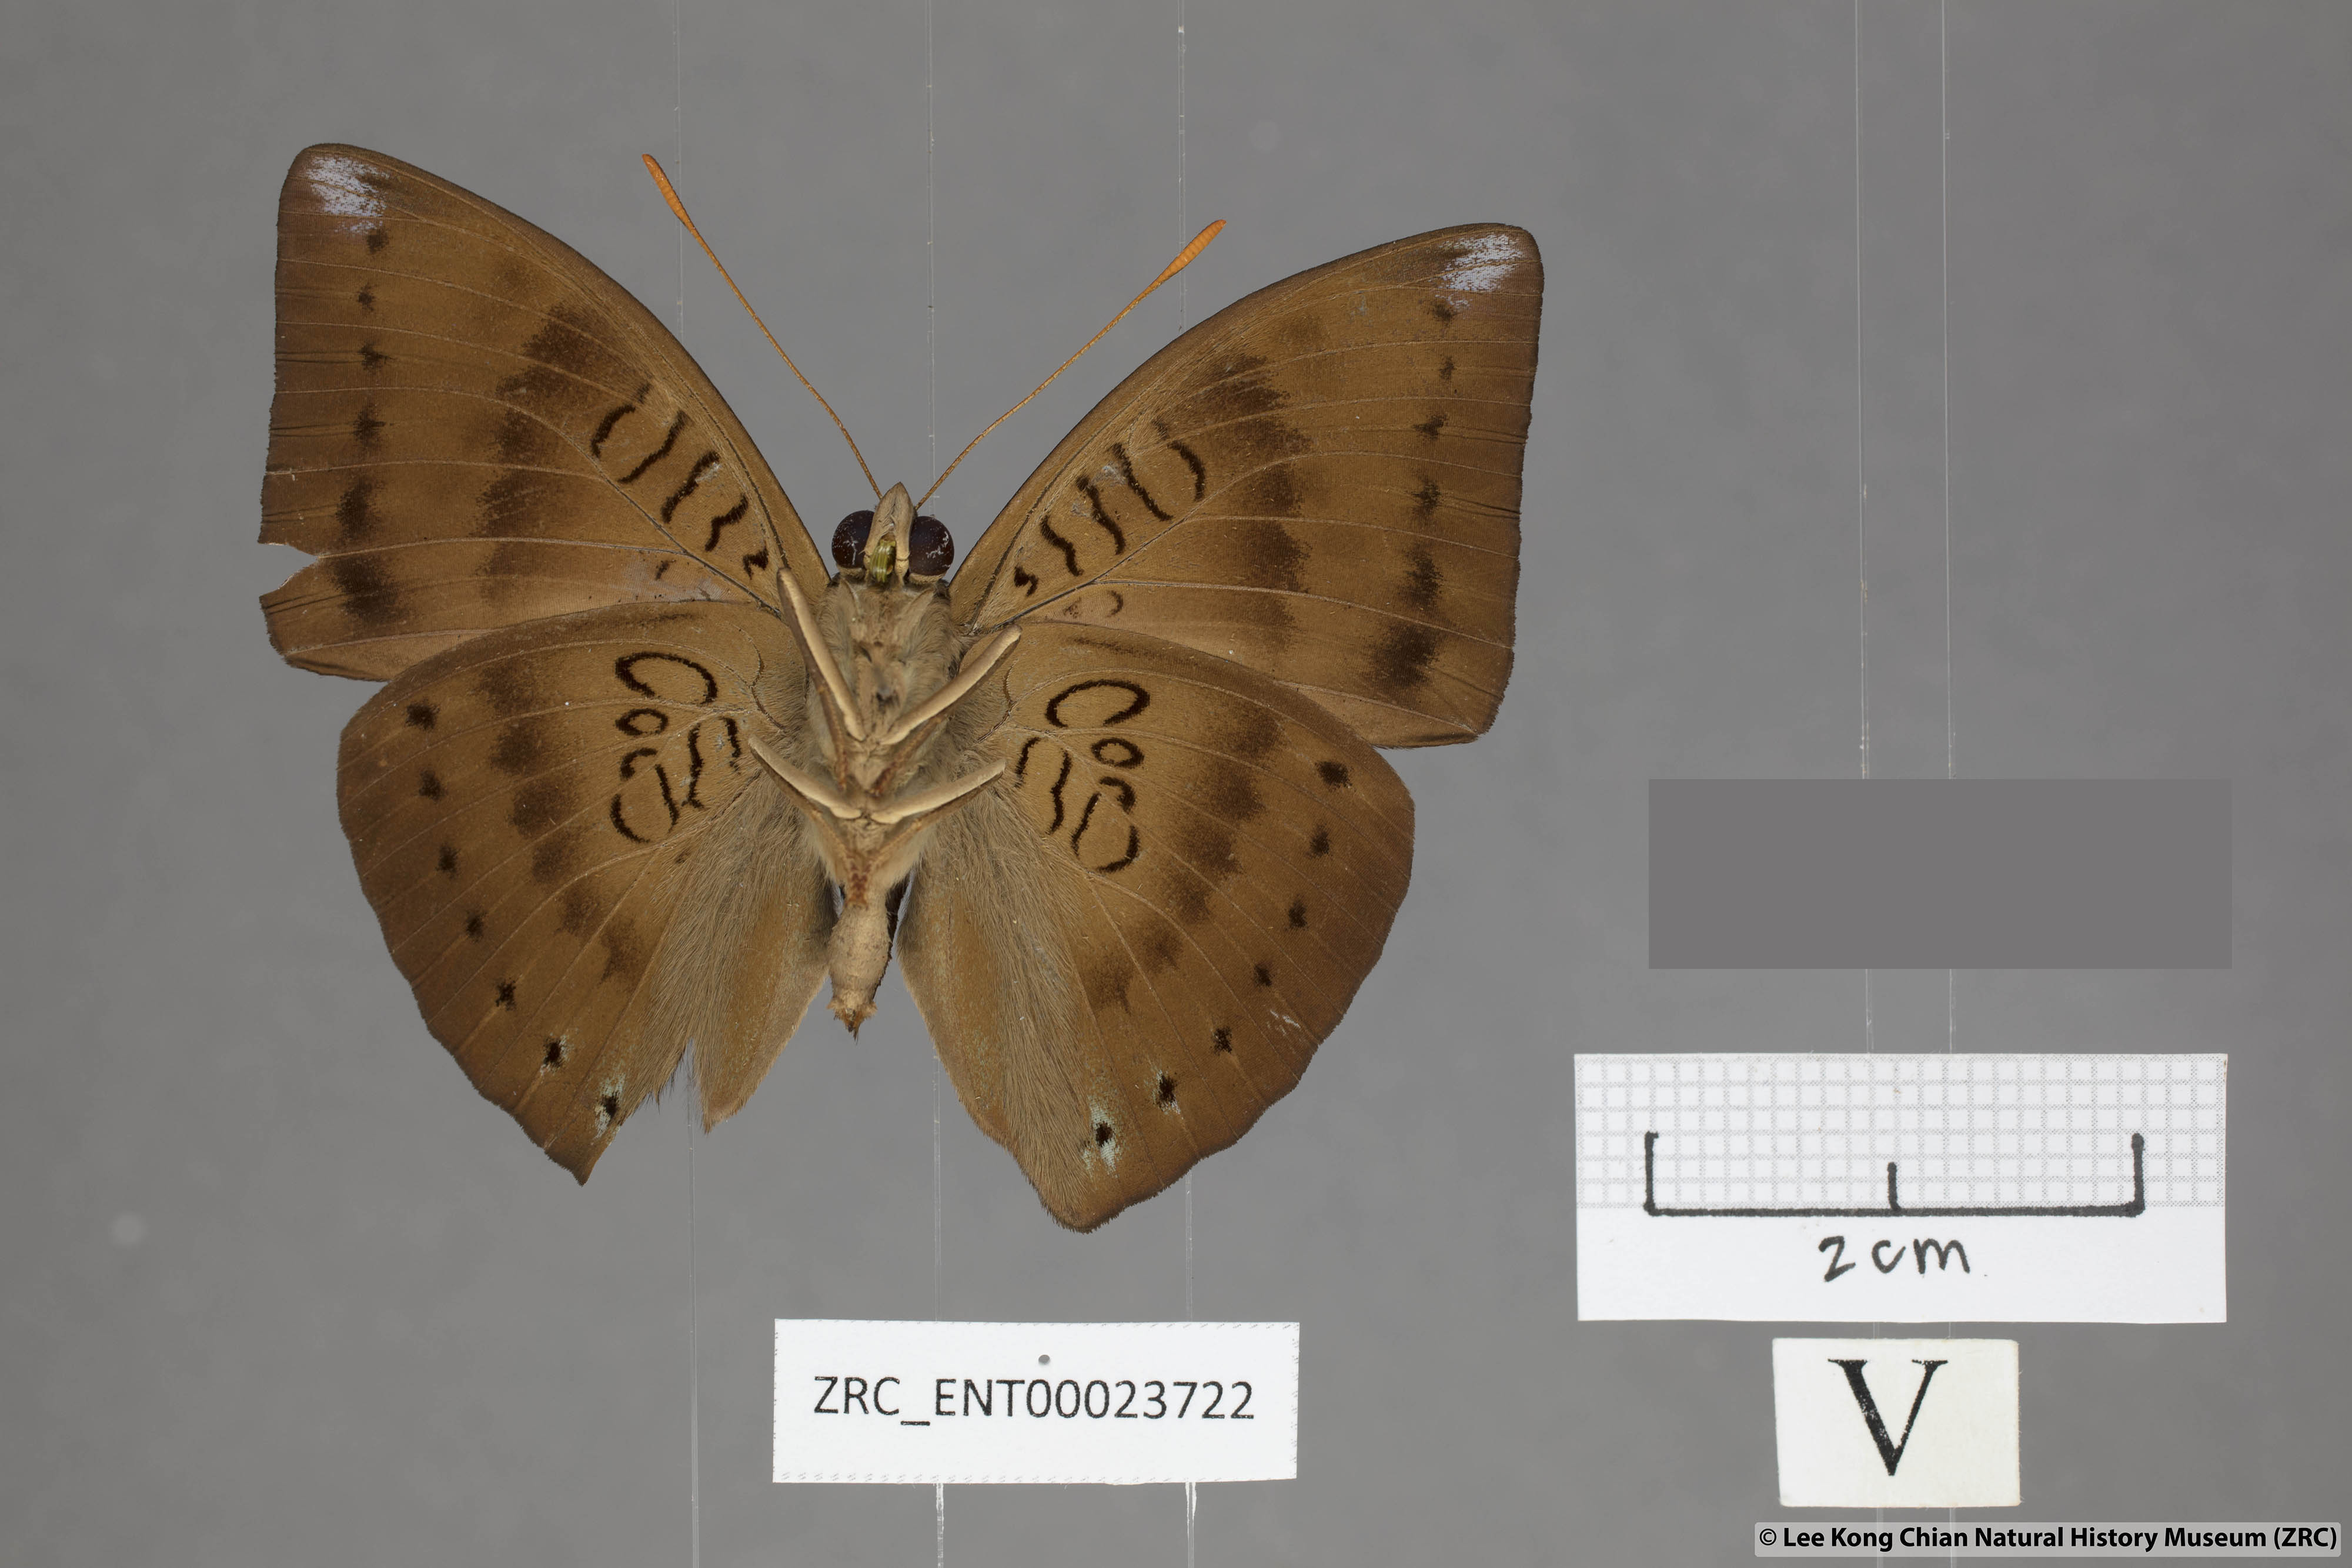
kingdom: Animalia
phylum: Arthropoda
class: Insecta
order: Lepidoptera
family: Nymphalidae
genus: Euthalia
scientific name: Euthalia merta
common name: White tipped baron
